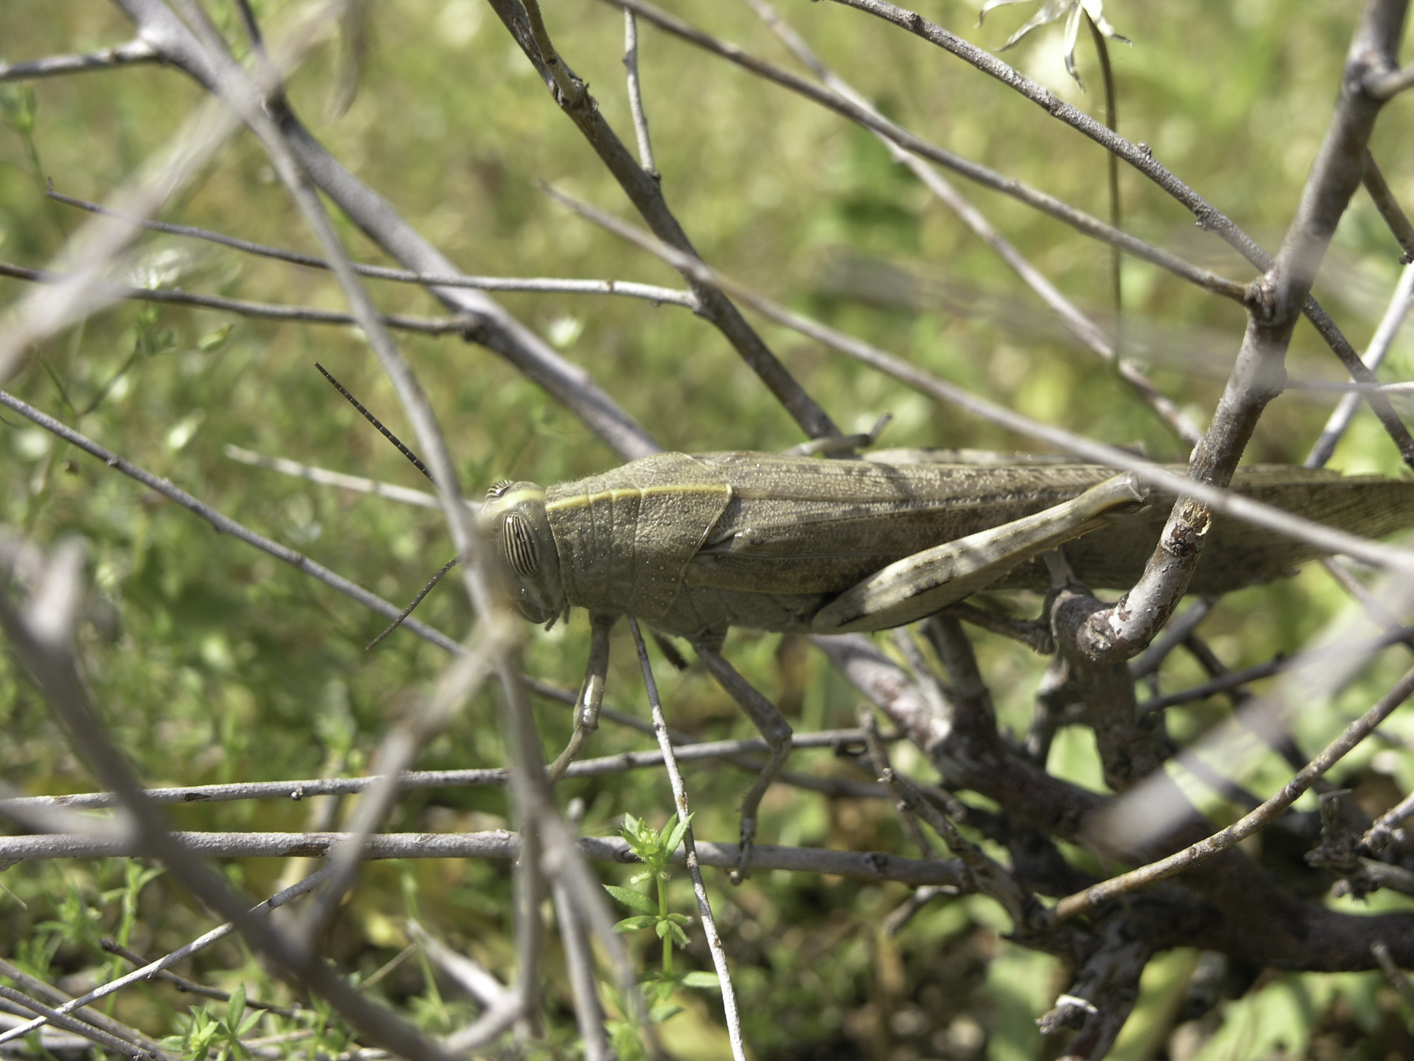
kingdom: Animalia
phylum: Arthropoda
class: Insecta
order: Orthoptera
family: Acrididae
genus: Anacridium
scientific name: Anacridium aegyptium
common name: Egyptian grasshopper
